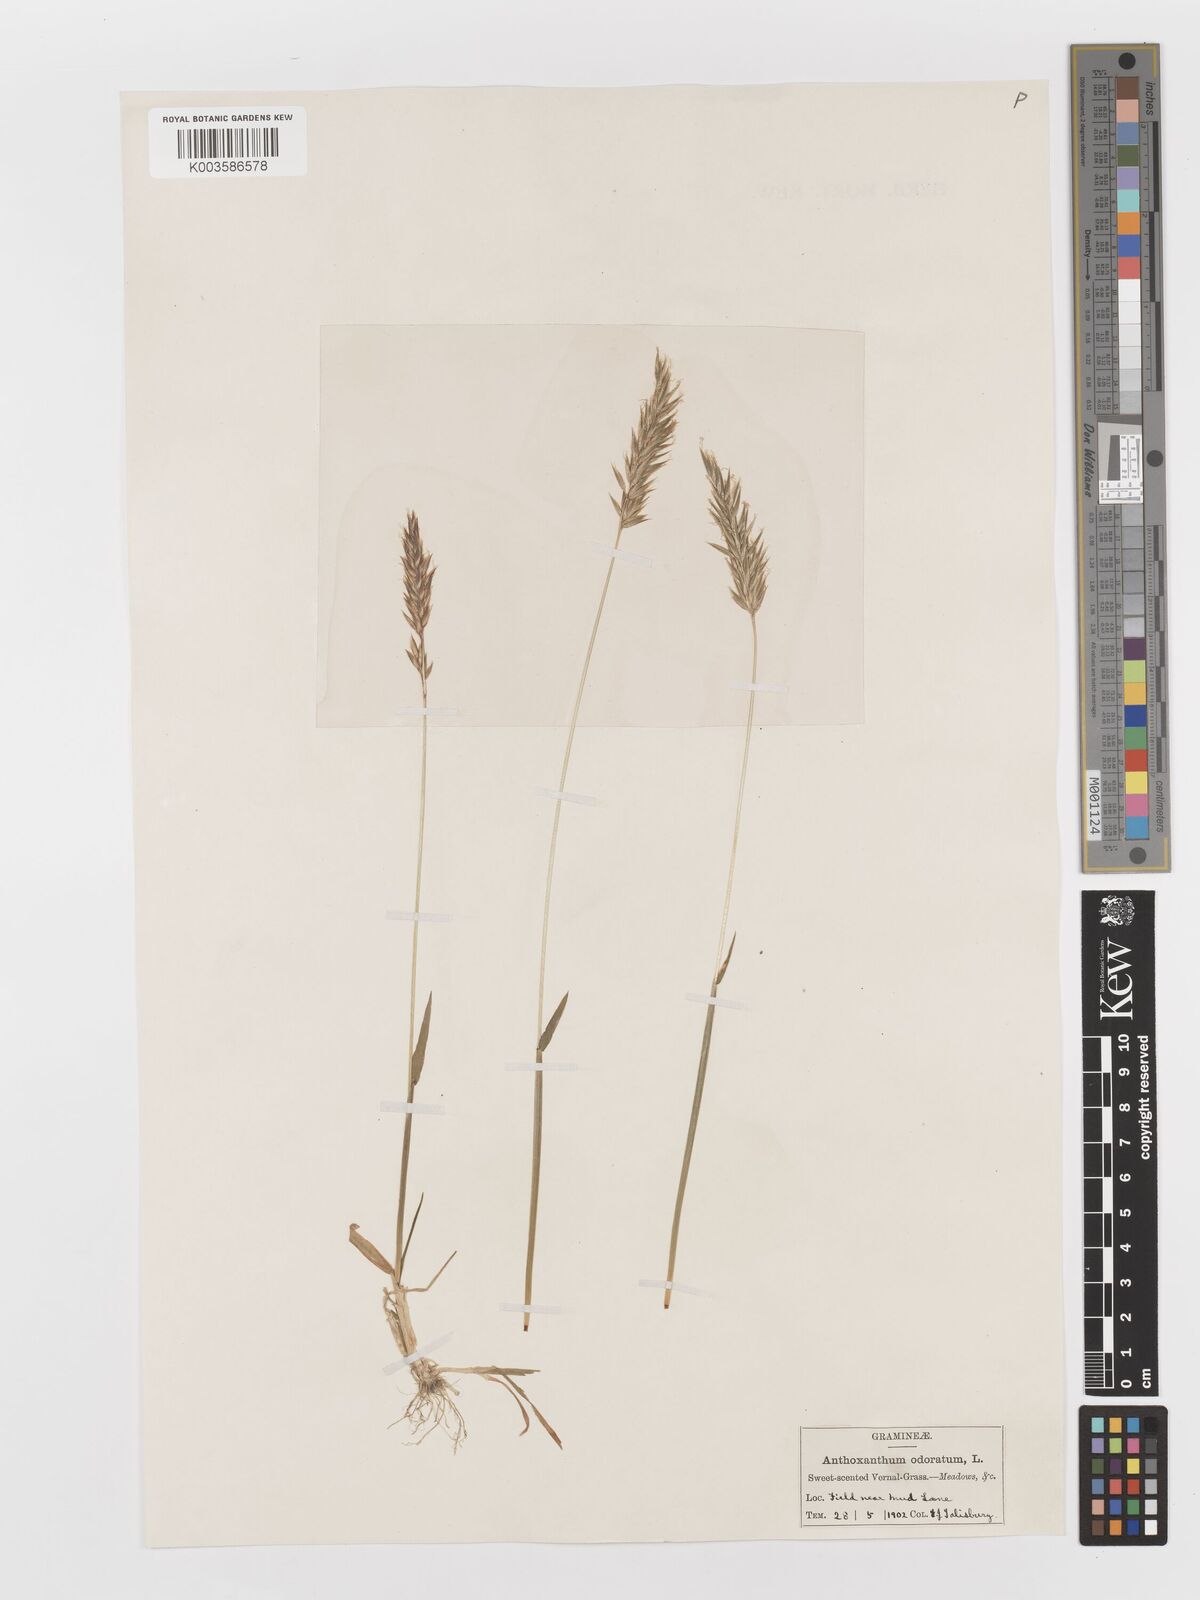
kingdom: Plantae
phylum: Tracheophyta
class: Liliopsida
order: Poales
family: Poaceae
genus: Anthoxanthum
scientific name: Anthoxanthum odoratum
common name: Sweet vernalgrass
